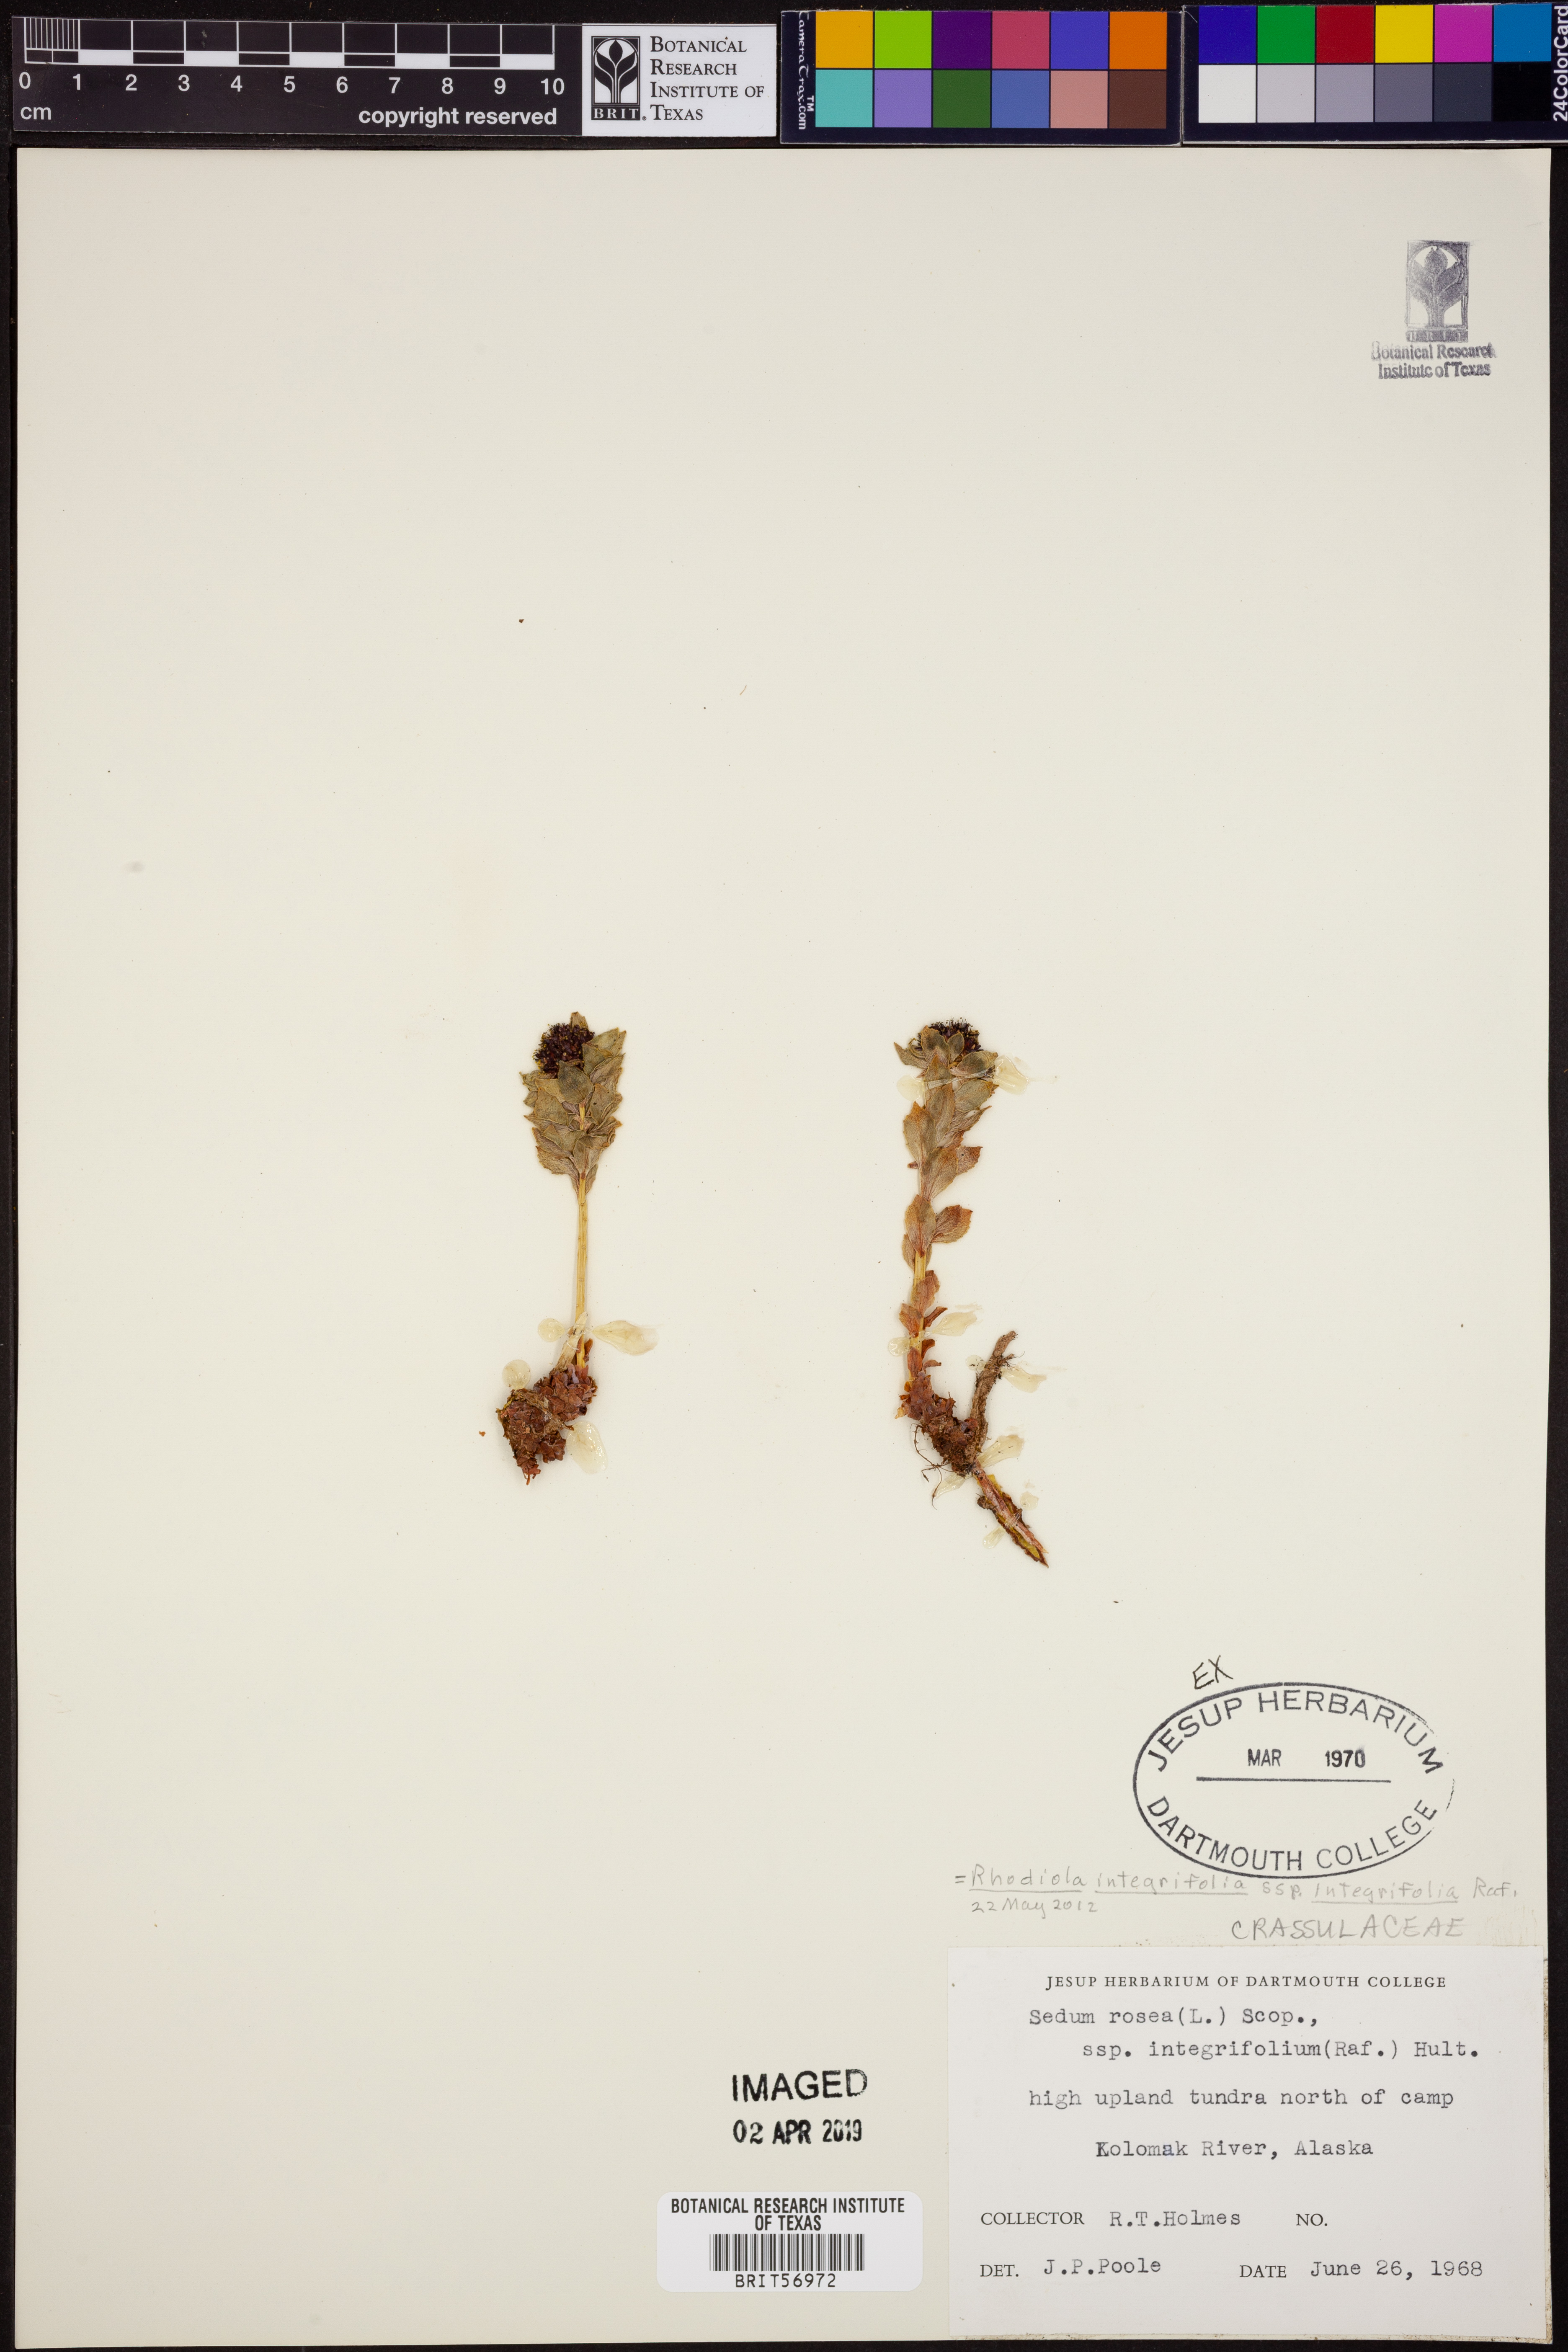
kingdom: Plantae
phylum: Tracheophyta
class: Magnoliopsida
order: Saxifragales
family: Crassulaceae
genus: Rhodiola
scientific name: Rhodiola integrifolia
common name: Western roseroot
